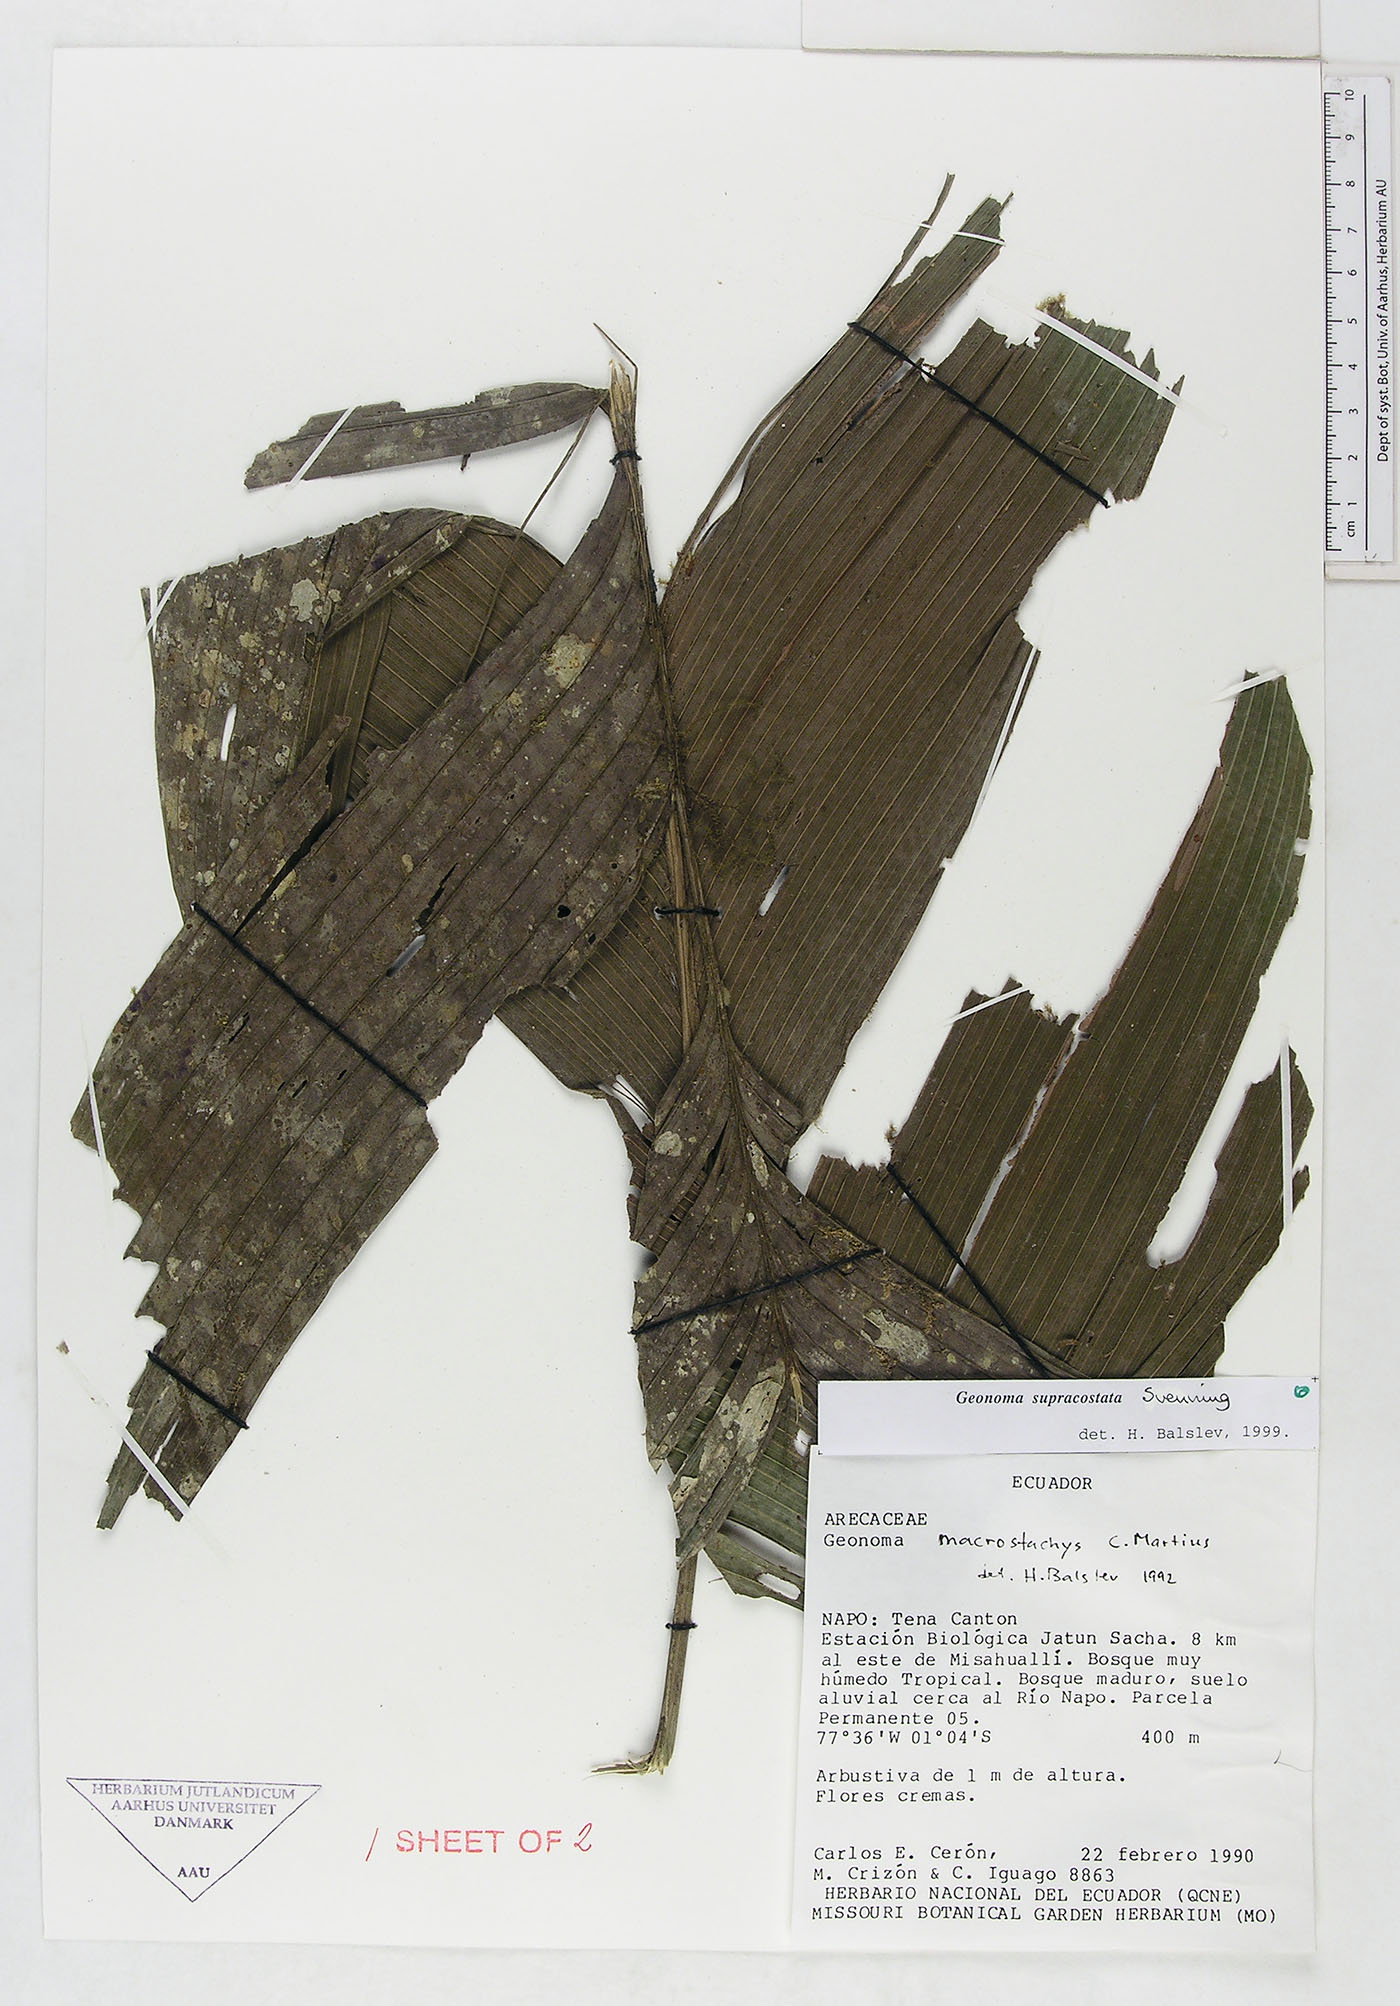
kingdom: Plantae
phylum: Tracheophyta
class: Liliopsida
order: Arecales
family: Arecaceae
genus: Geonoma
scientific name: Geonoma macrostachys
